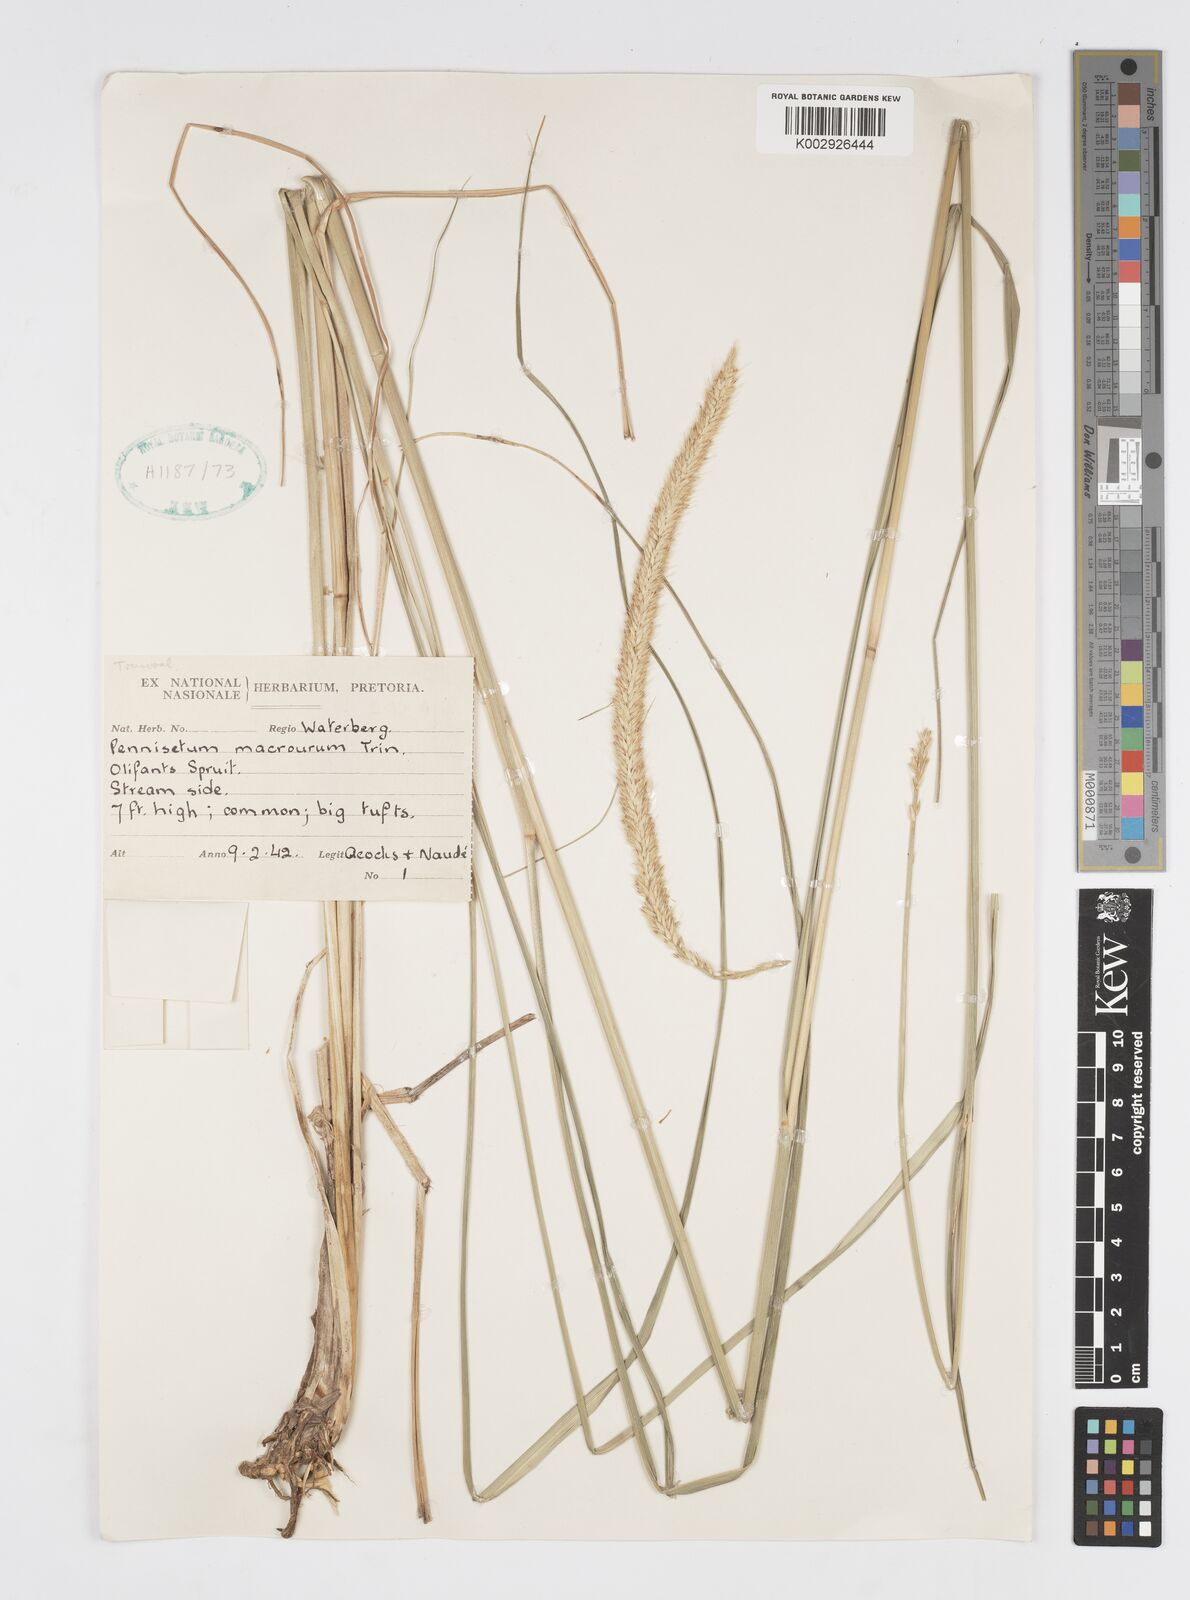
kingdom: Plantae
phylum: Tracheophyta
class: Liliopsida
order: Poales
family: Poaceae
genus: Cenchrus
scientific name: Cenchrus caudatus
